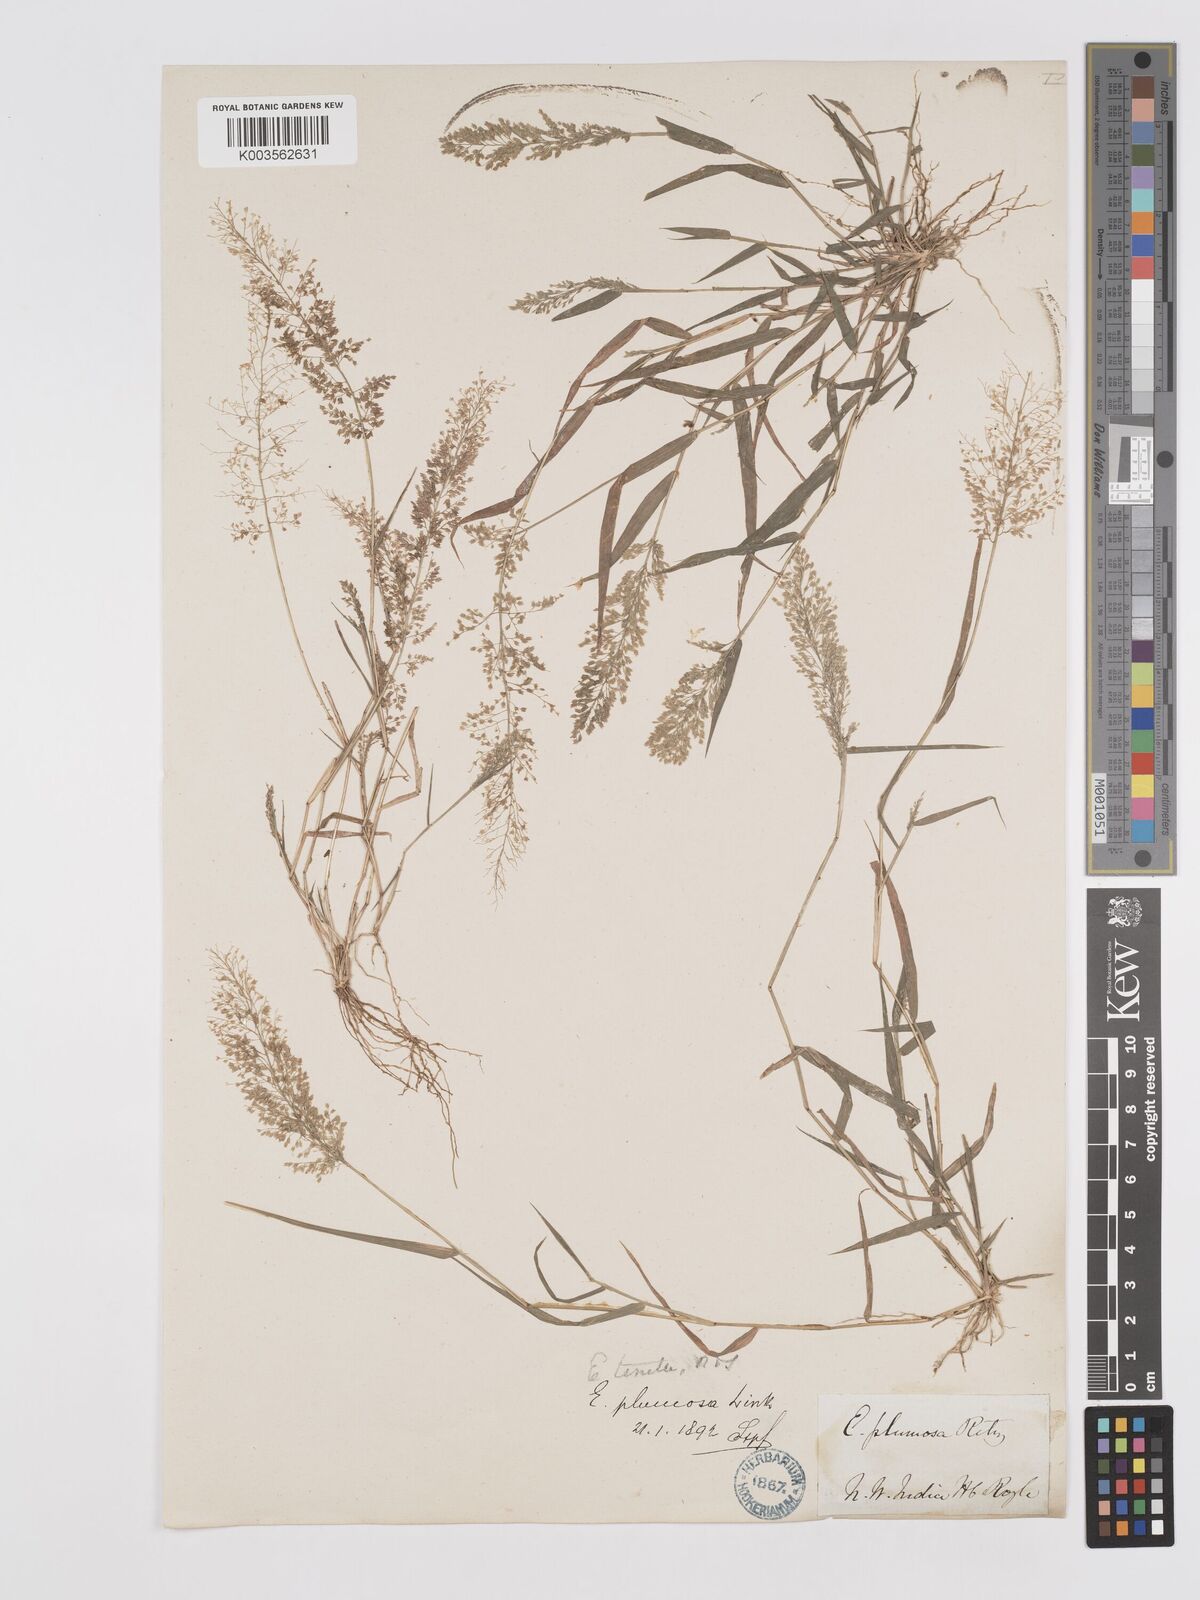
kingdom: Plantae
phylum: Tracheophyta
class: Liliopsida
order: Poales
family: Poaceae
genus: Eragrostis
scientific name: Eragrostis tenella
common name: Japanese lovegrass
